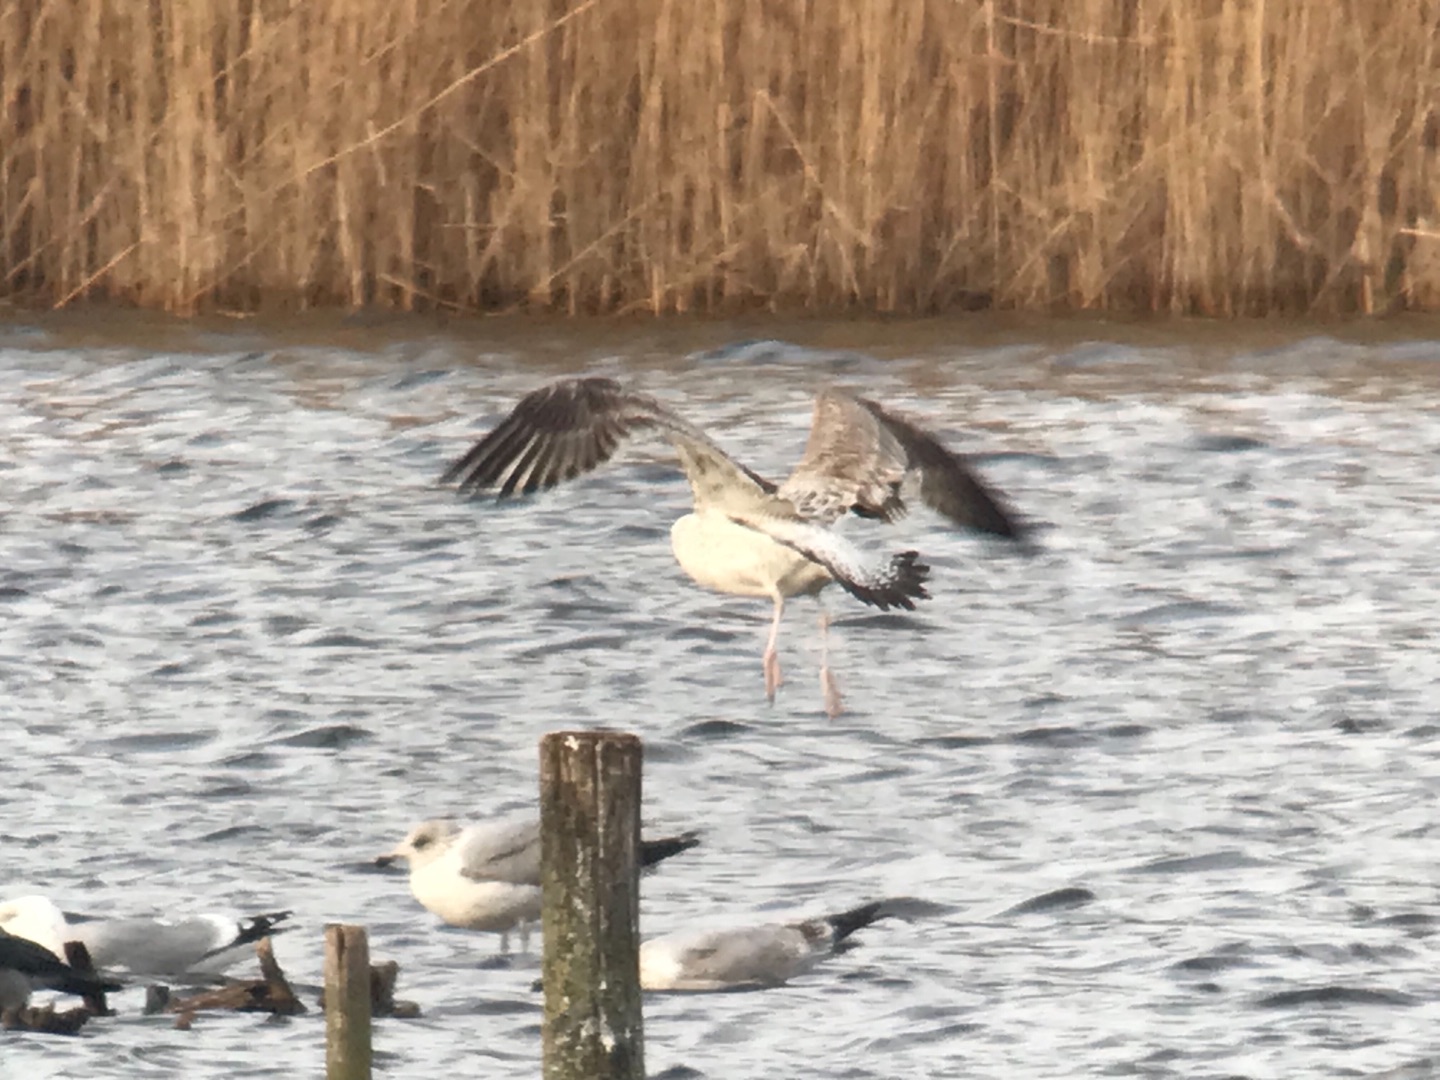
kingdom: Animalia
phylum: Chordata
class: Aves
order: Charadriiformes
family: Laridae
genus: Larus
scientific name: Larus cachinnans
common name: Kaspisk måge
